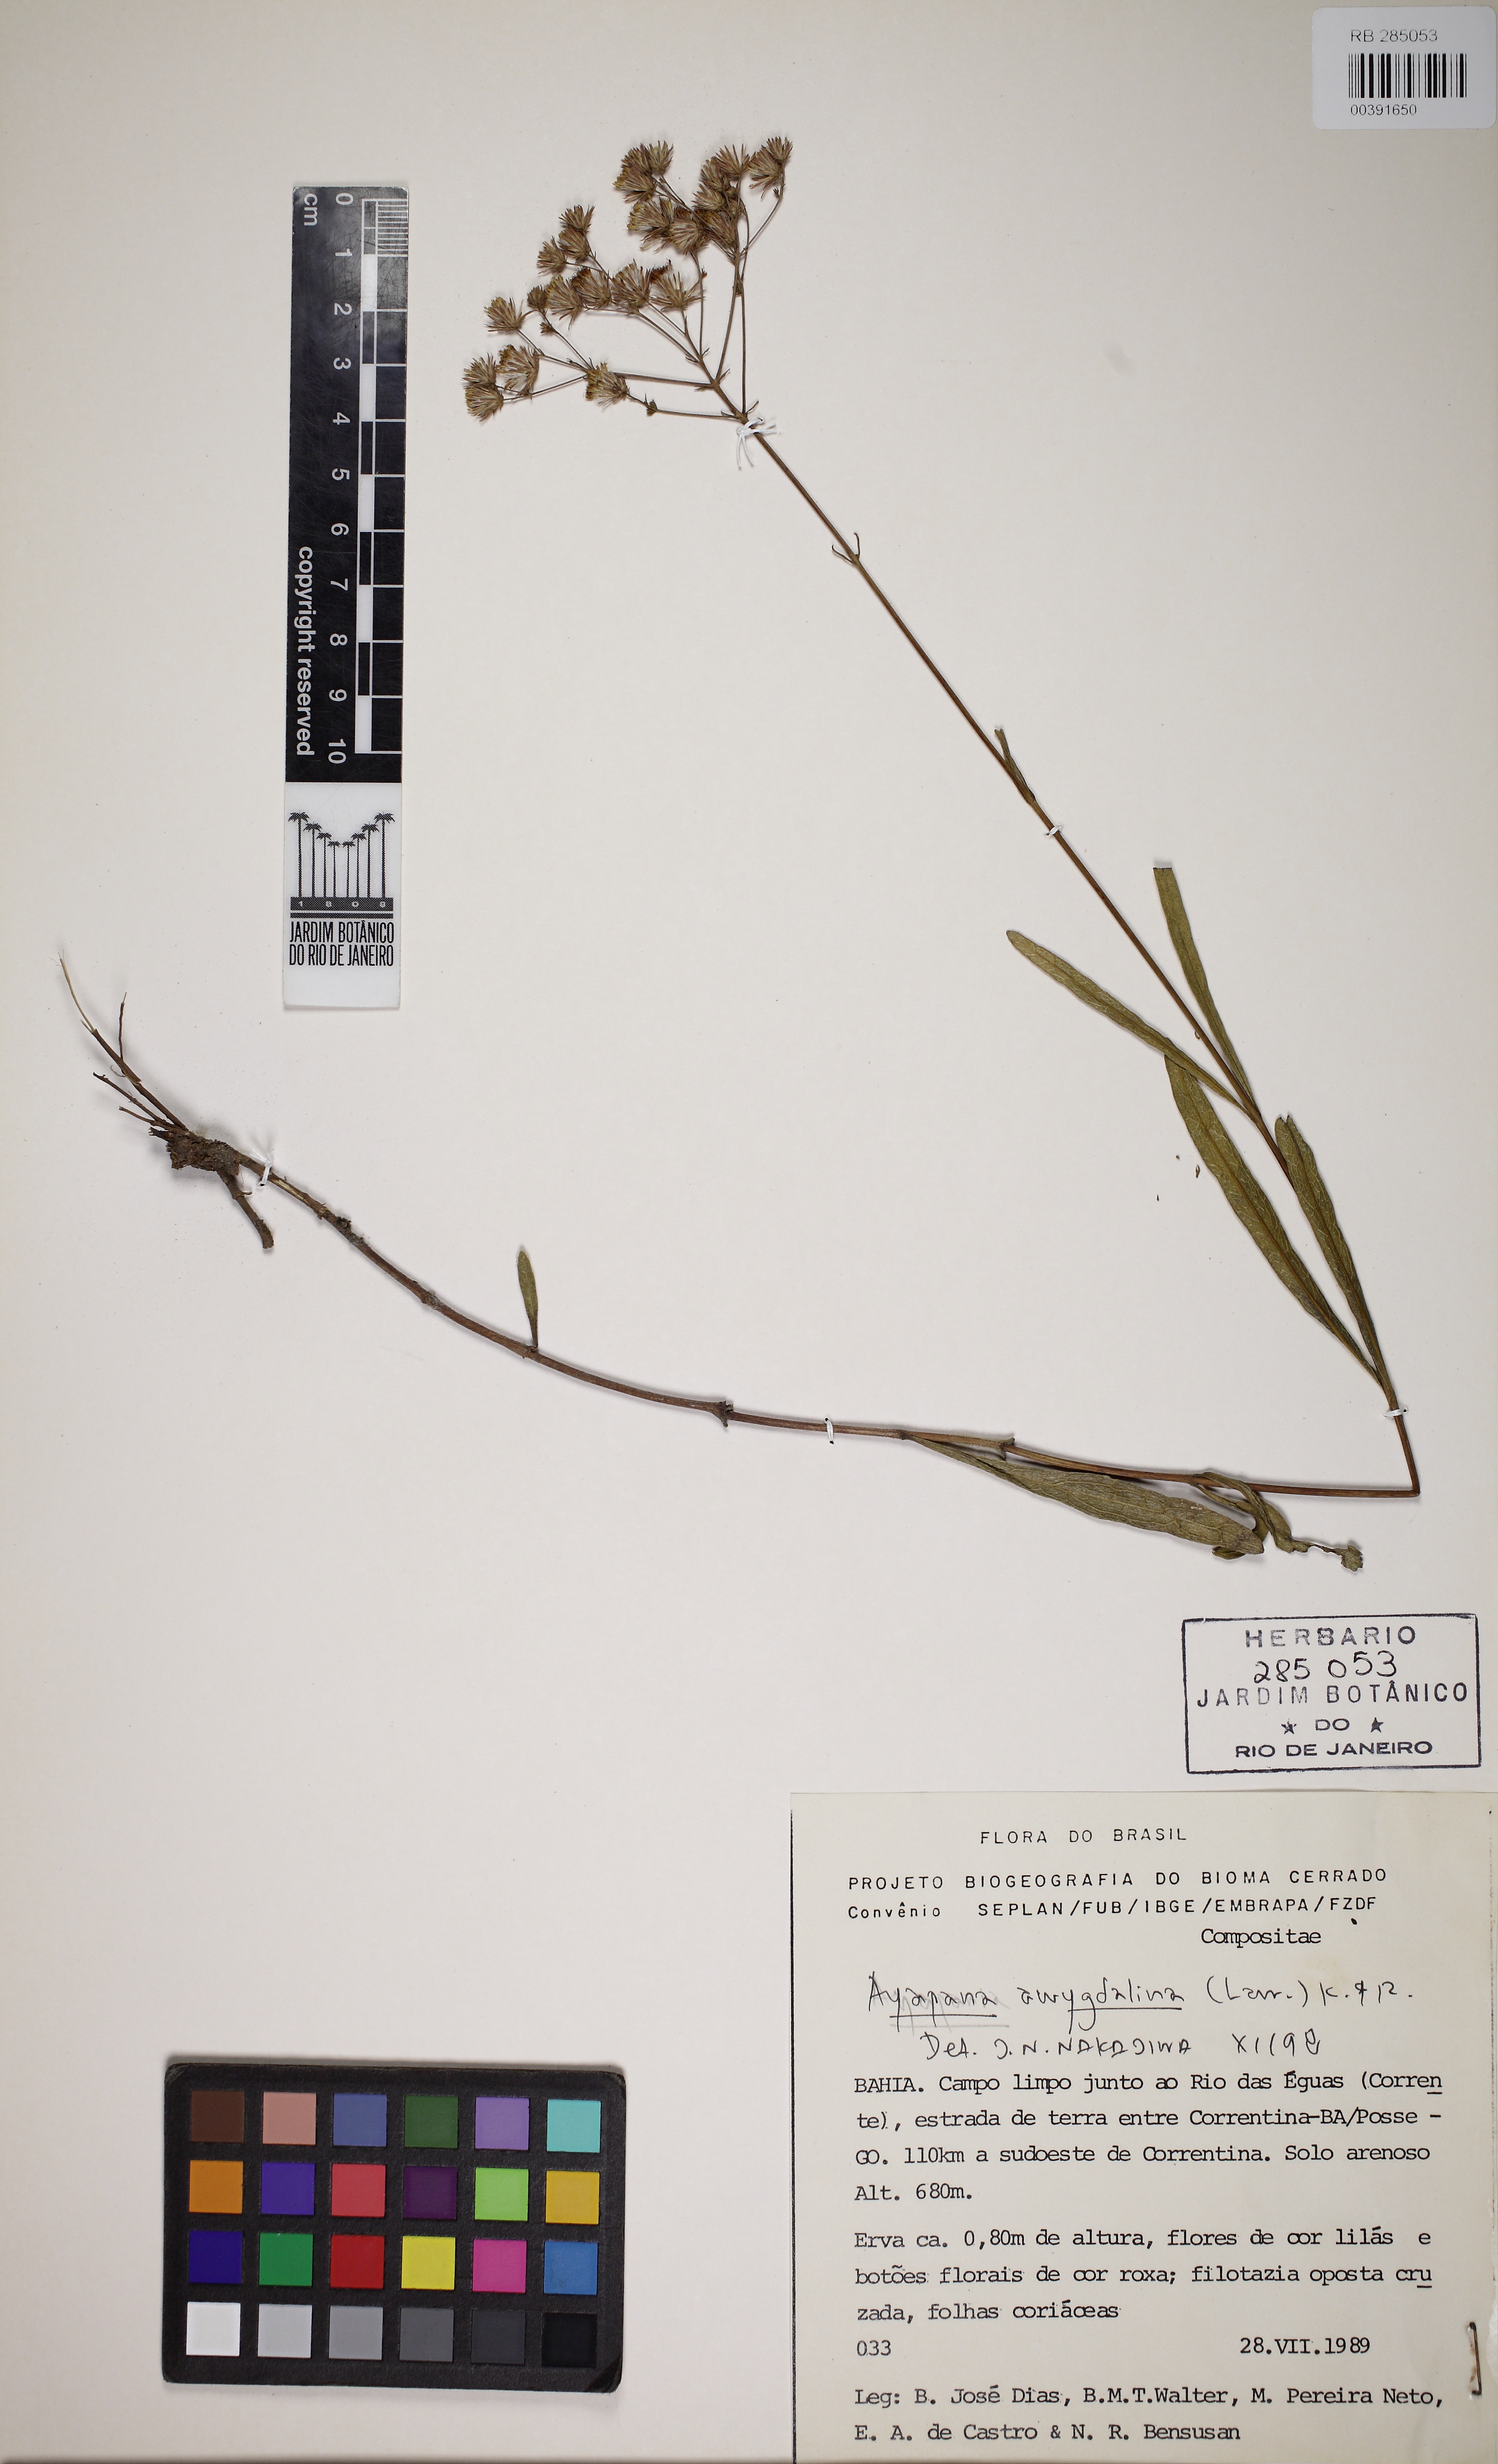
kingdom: Plantae
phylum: Tracheophyta
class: Magnoliopsida
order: Asterales
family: Asteraceae
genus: Ayapana
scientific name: Ayapana amygdalina
